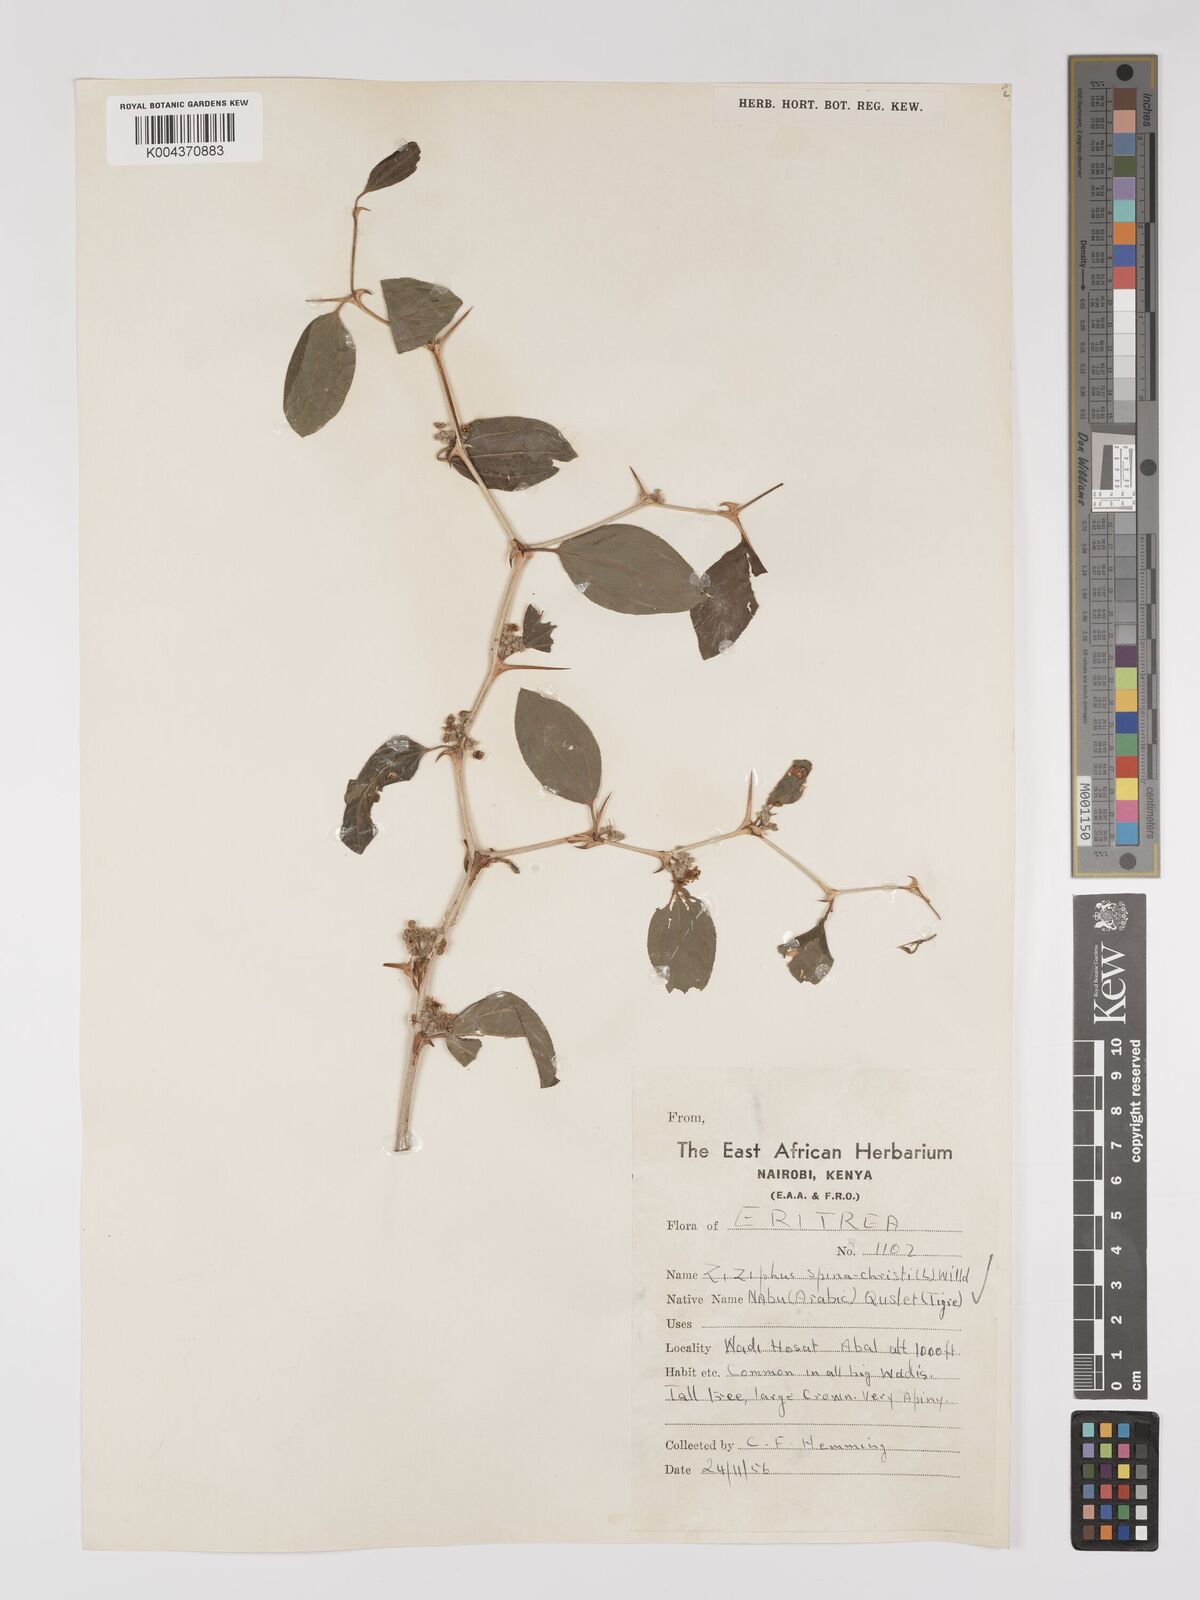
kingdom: Plantae
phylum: Tracheophyta
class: Magnoliopsida
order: Rosales
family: Rhamnaceae
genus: Ziziphus
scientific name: Ziziphus spina-christi
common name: Syrian christ-thorn
